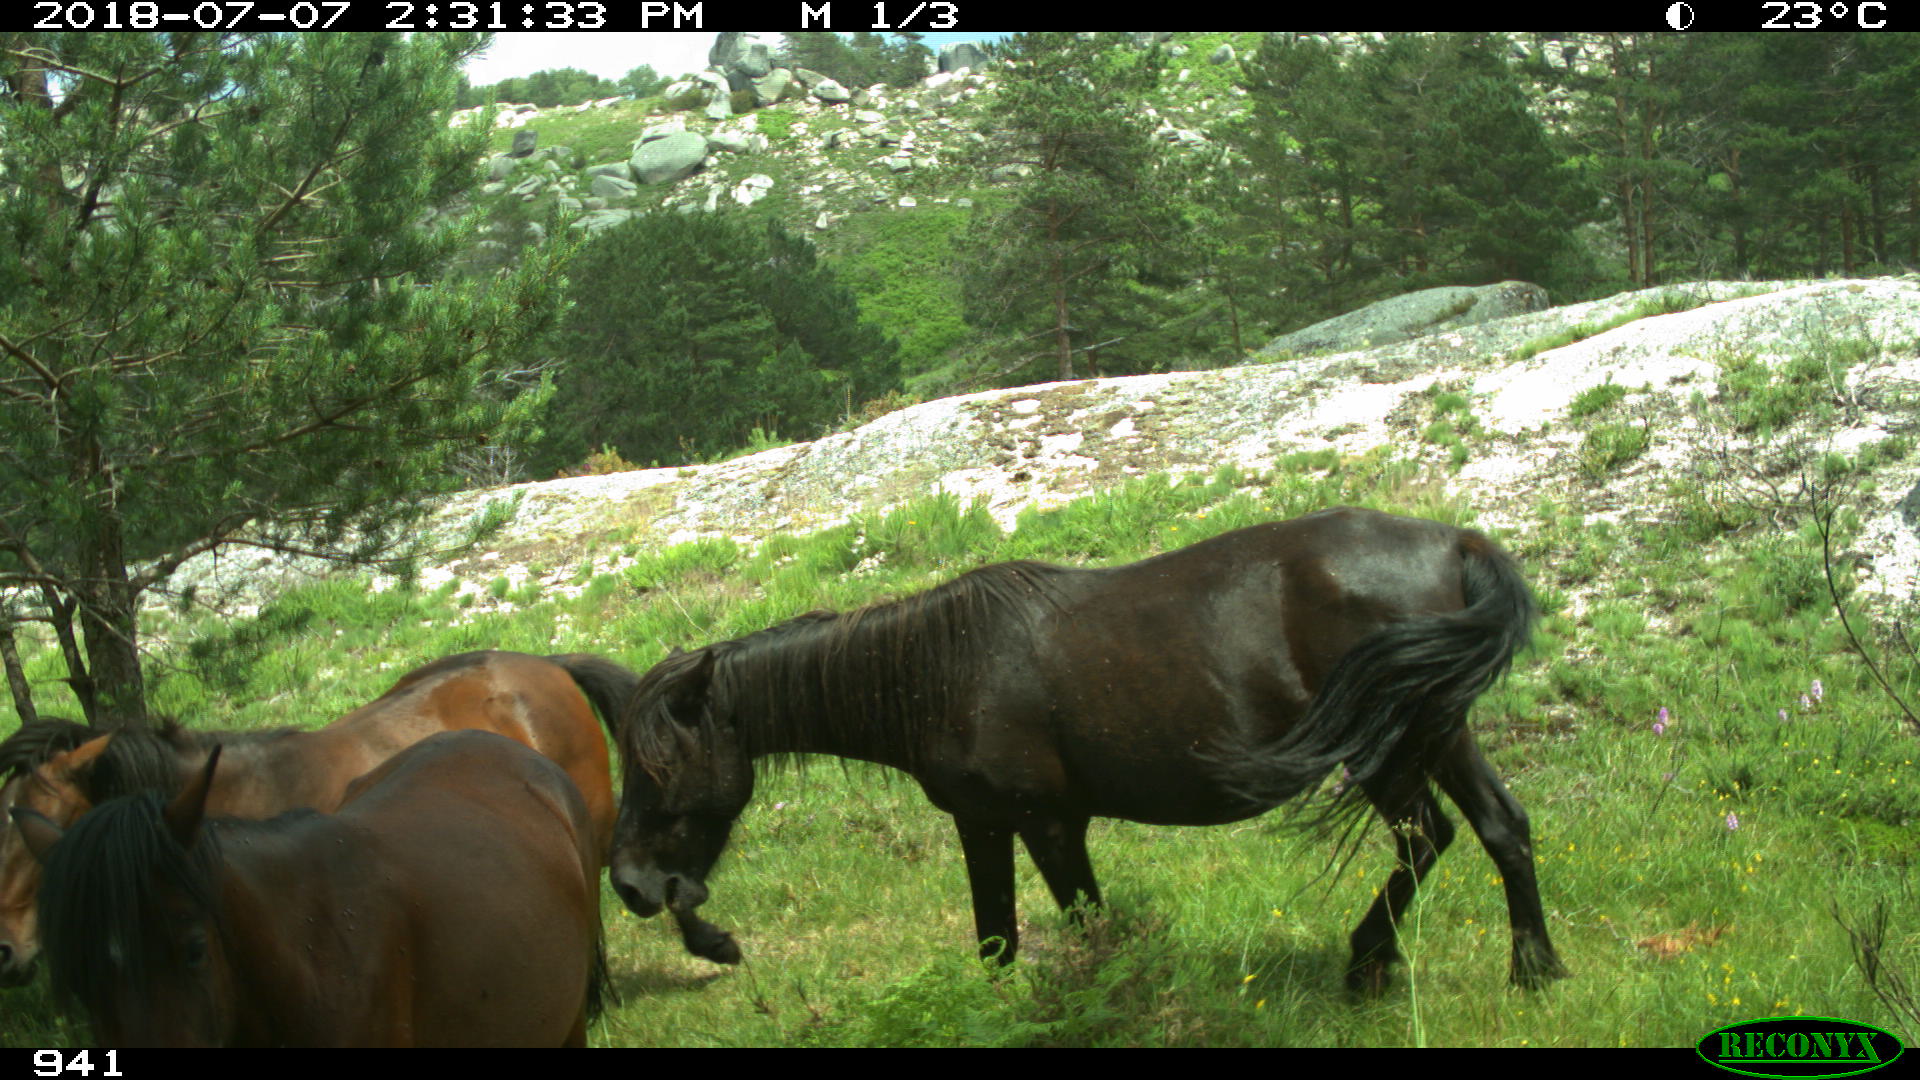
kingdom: Animalia
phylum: Chordata
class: Mammalia
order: Perissodactyla
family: Equidae
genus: Equus
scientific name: Equus caballus
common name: Horse
